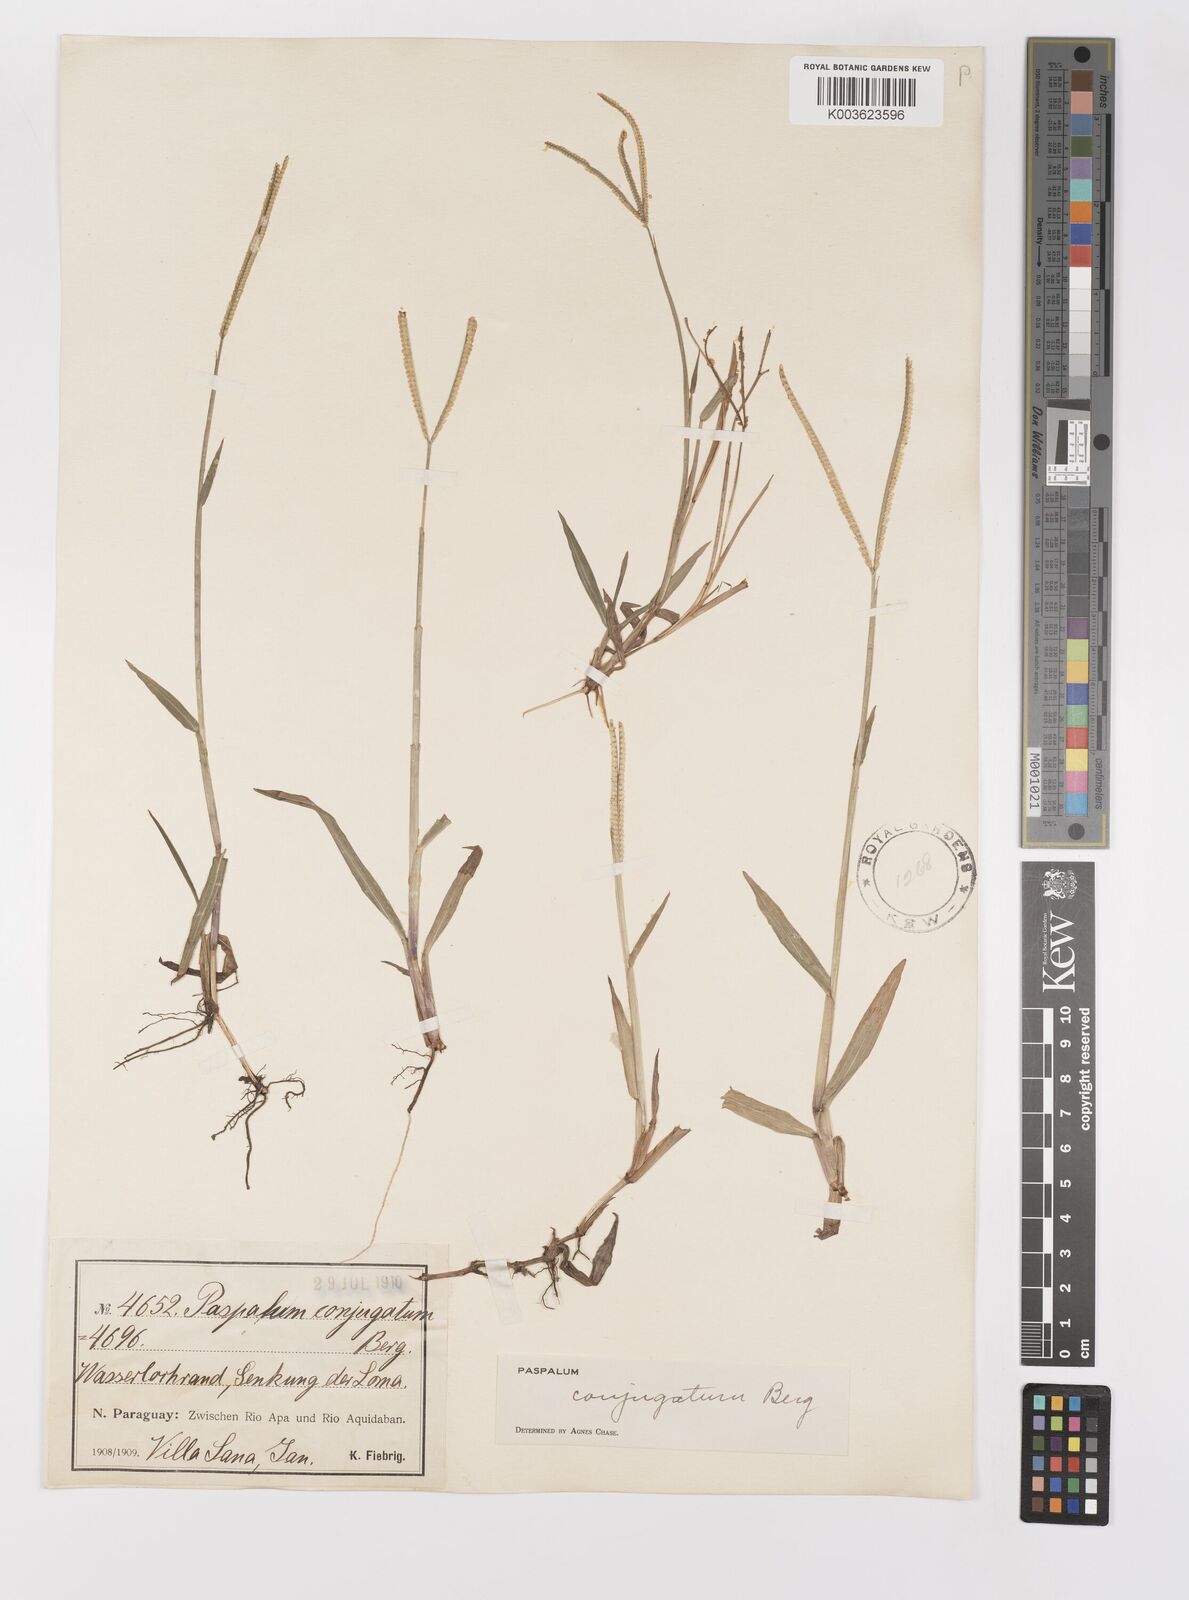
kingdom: Plantae
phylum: Tracheophyta
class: Liliopsida
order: Poales
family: Poaceae
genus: Paspalum
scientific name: Paspalum conjugatum
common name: Hilograss
